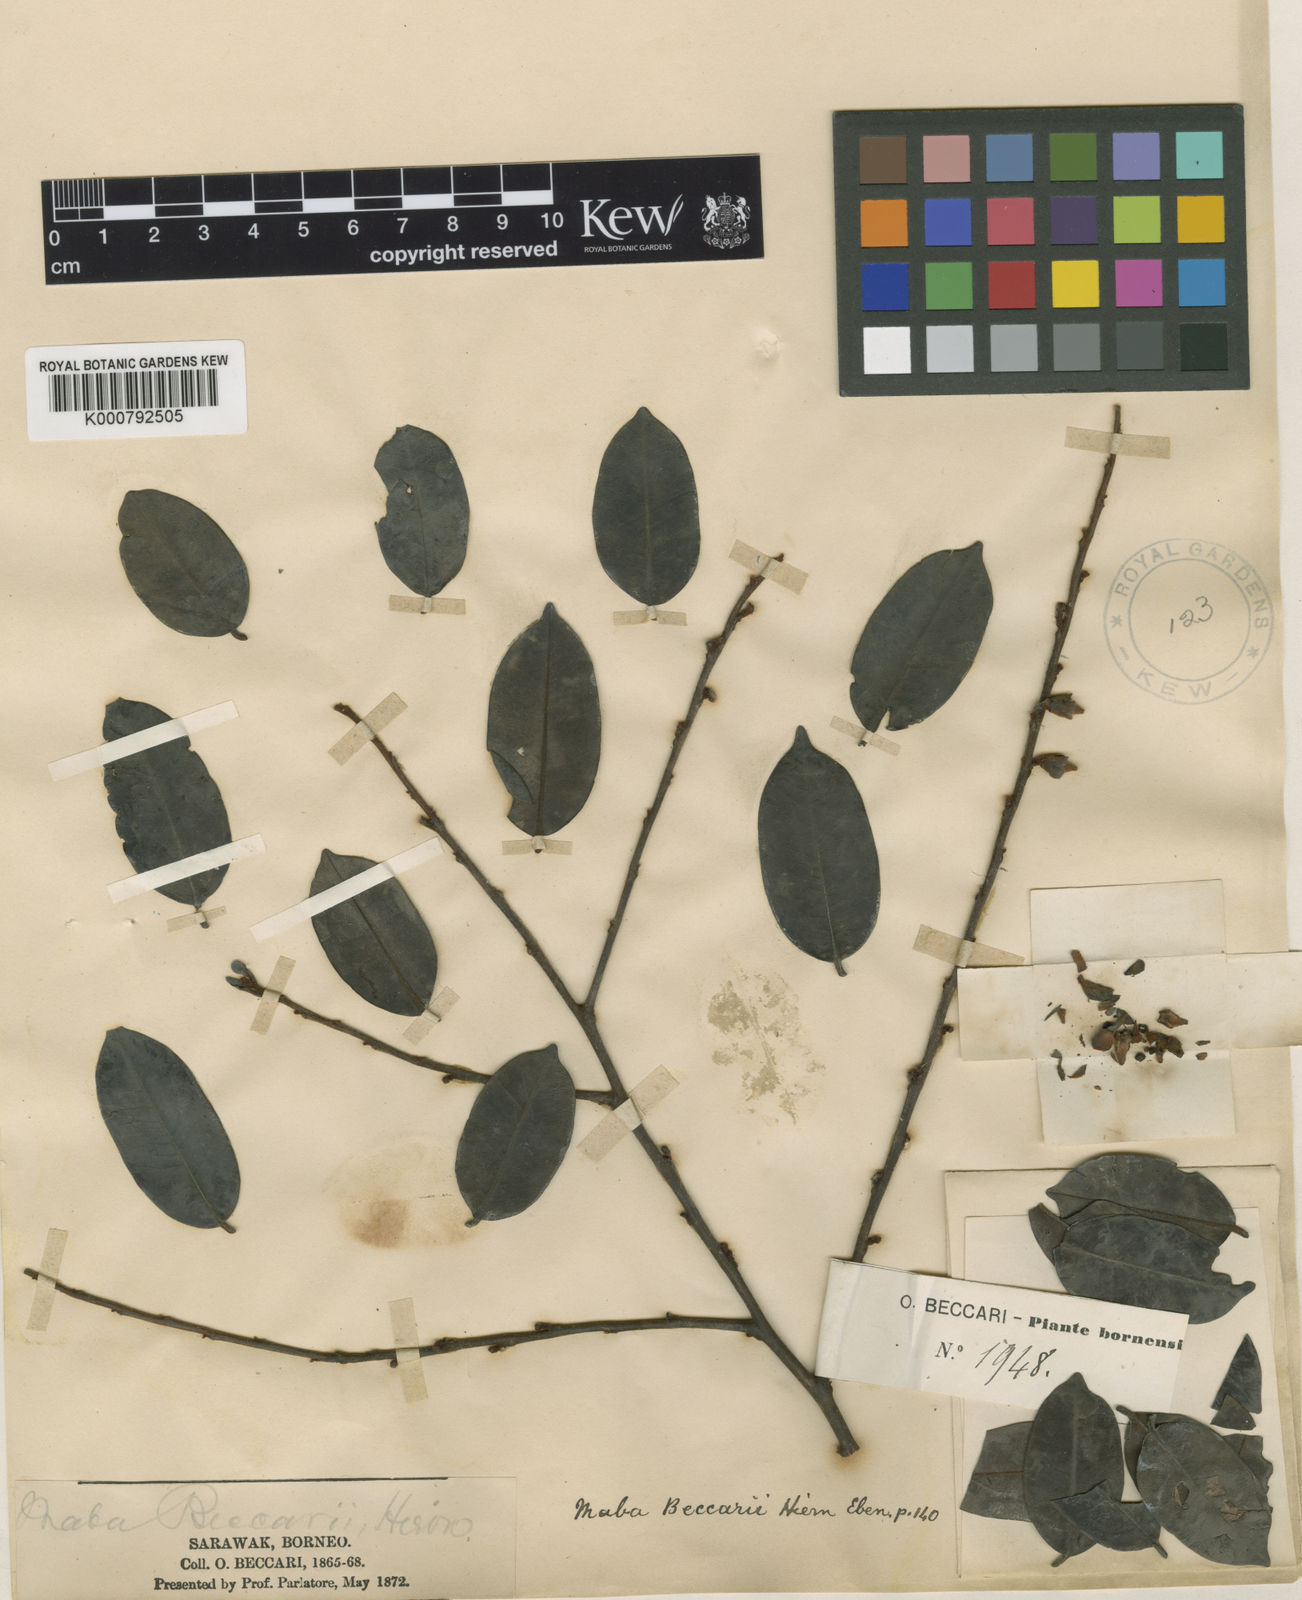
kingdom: Plantae
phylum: Tracheophyta
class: Magnoliopsida
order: Ericales
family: Ebenaceae
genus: Diospyros
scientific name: Diospyros puncticulosa
